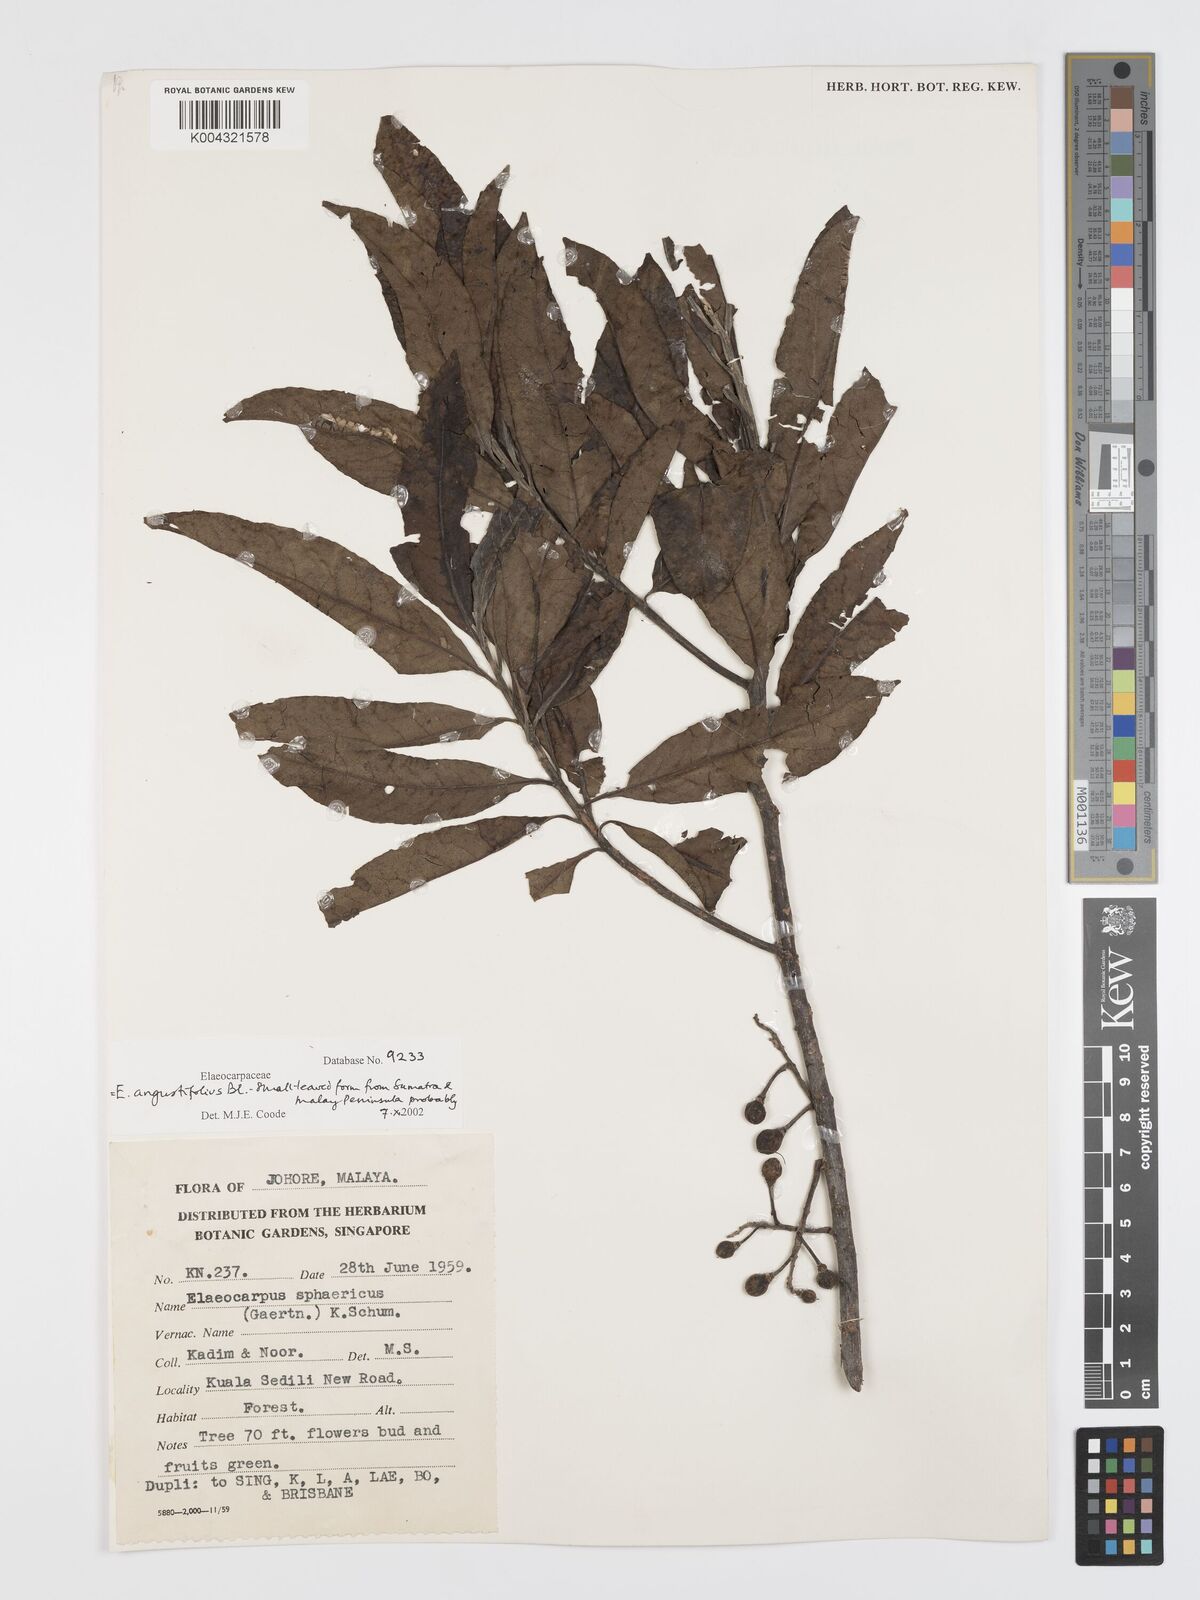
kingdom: Plantae
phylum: Tracheophyta
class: Magnoliopsida
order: Oxalidales
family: Elaeocarpaceae
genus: Elaeocarpus
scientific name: Elaeocarpus
